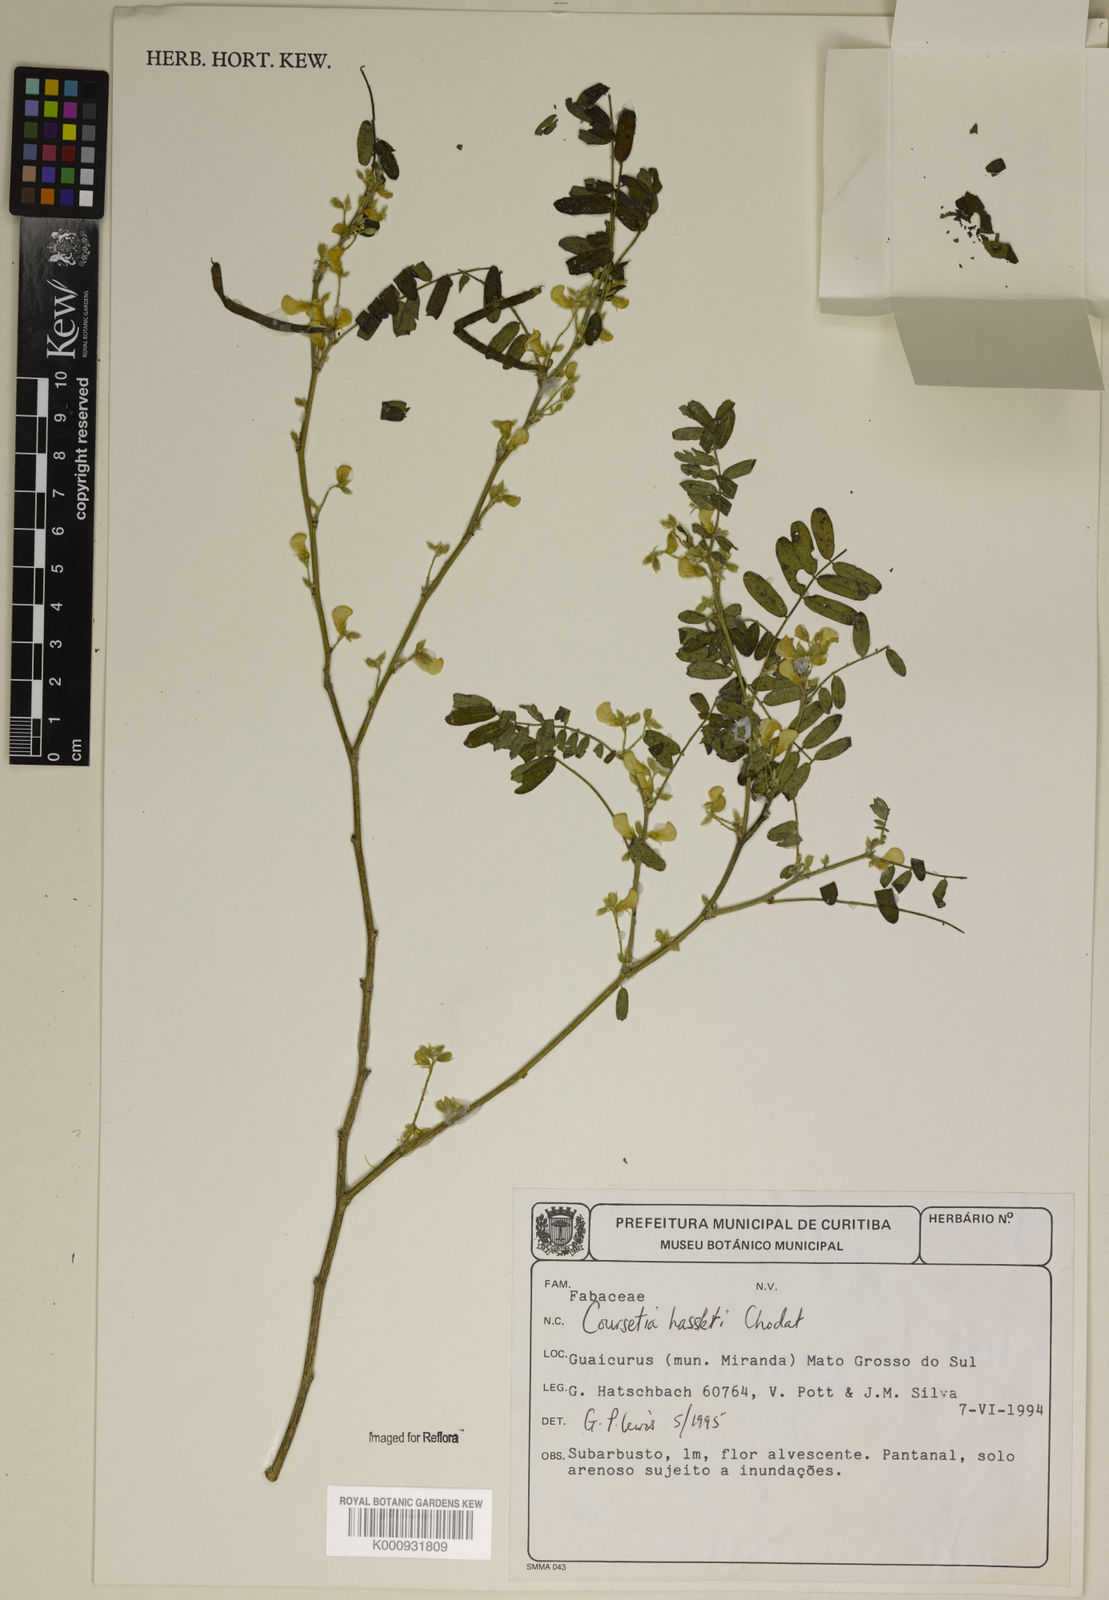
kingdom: Plantae
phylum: Tracheophyta
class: Magnoliopsida
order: Fabales
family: Fabaceae
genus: Coursetia
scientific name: Coursetia hassleri
